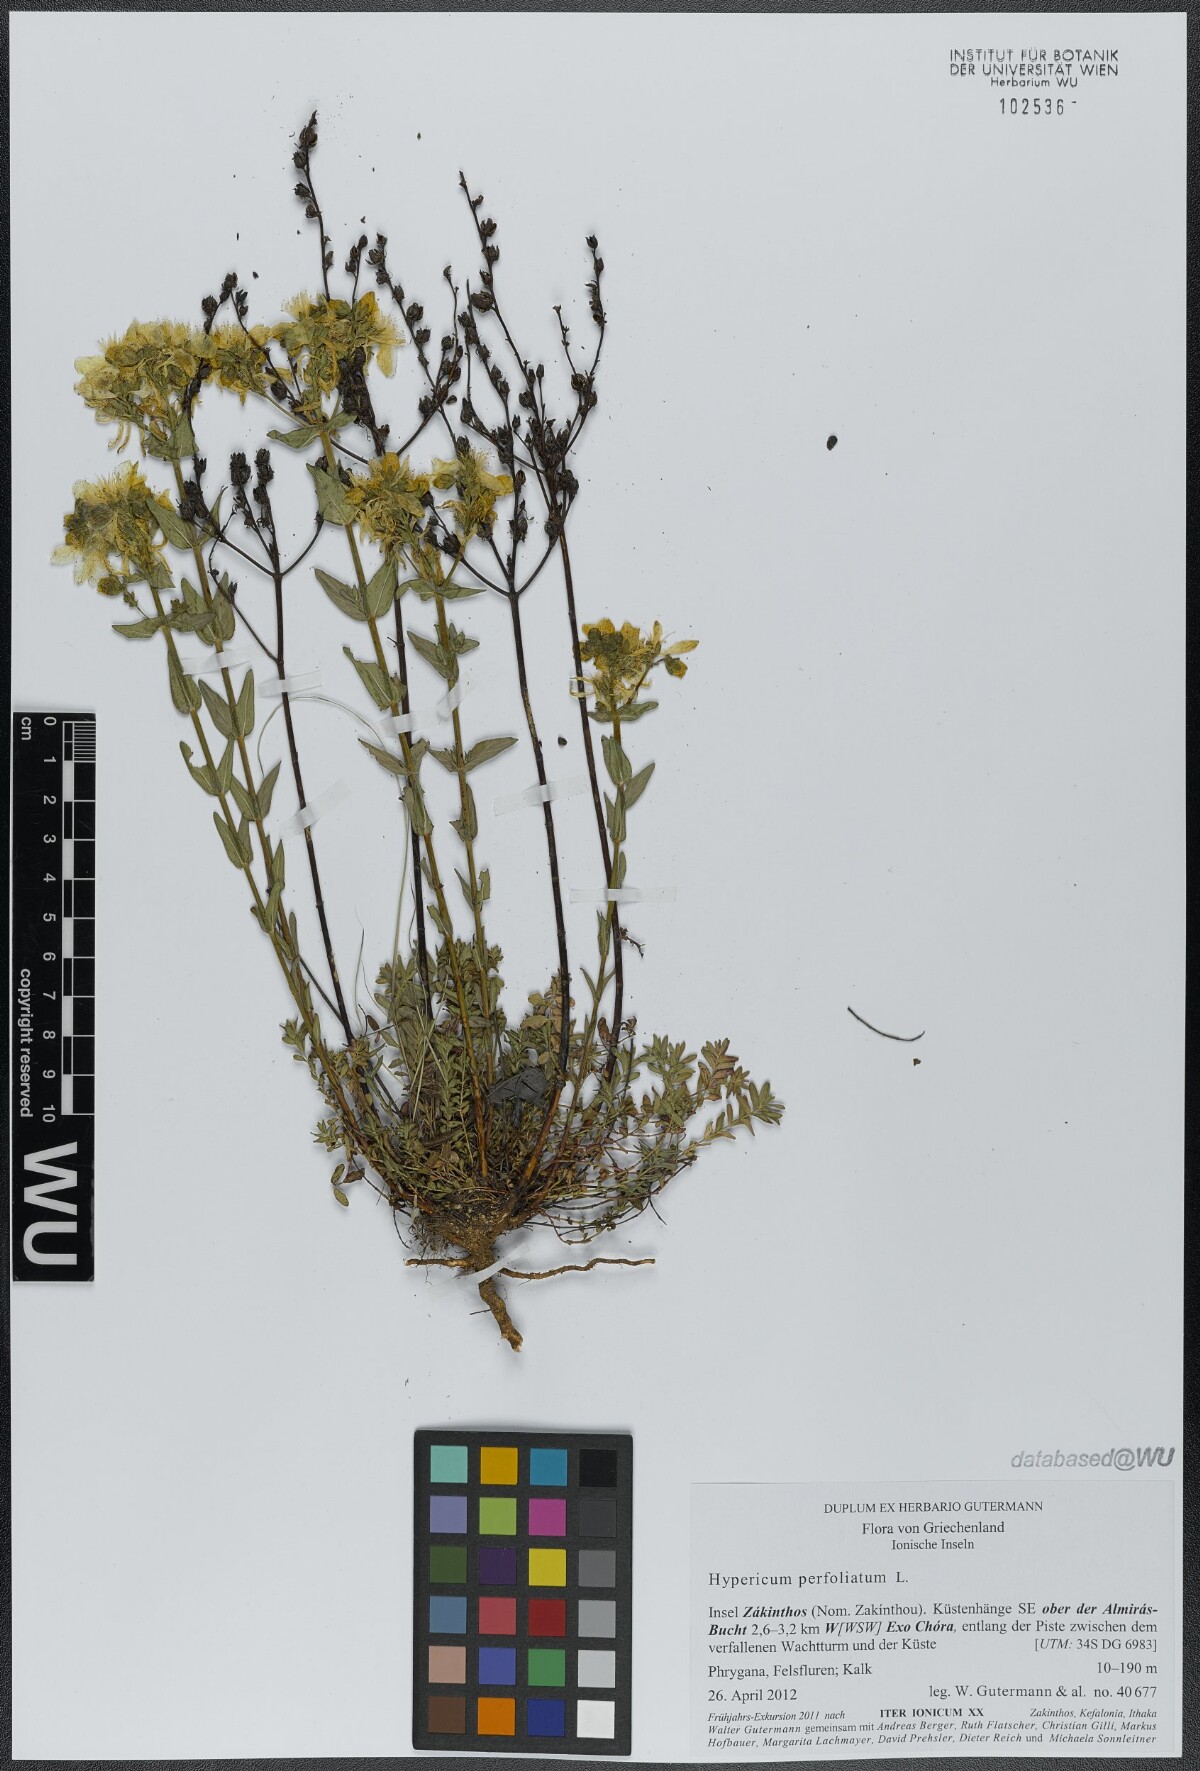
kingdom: Plantae
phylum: Tracheophyta
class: Magnoliopsida
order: Malpighiales
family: Hypericaceae
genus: Hypericum
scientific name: Hypericum perfoliatum
